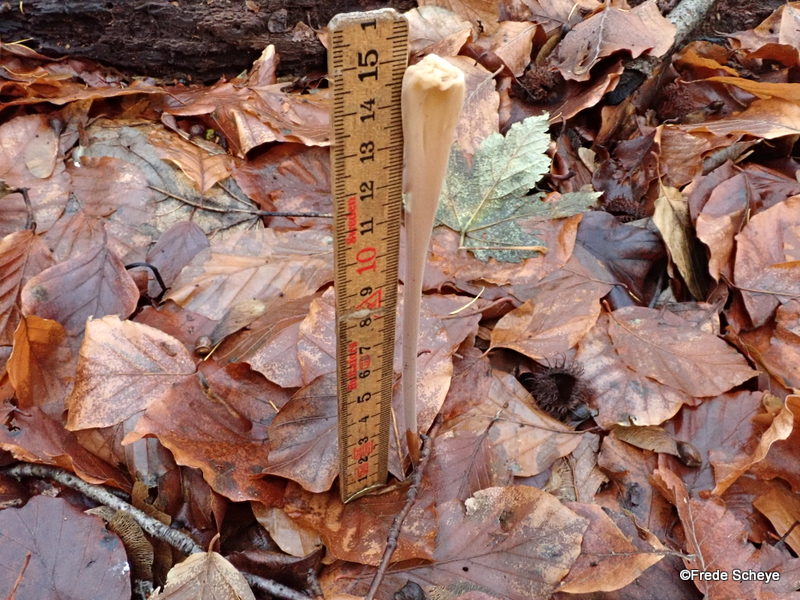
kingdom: Fungi
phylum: Basidiomycota
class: Agaricomycetes
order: Agaricales
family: Typhulaceae
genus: Typhula
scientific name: Typhula fistulosa
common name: pibet rørkølle
